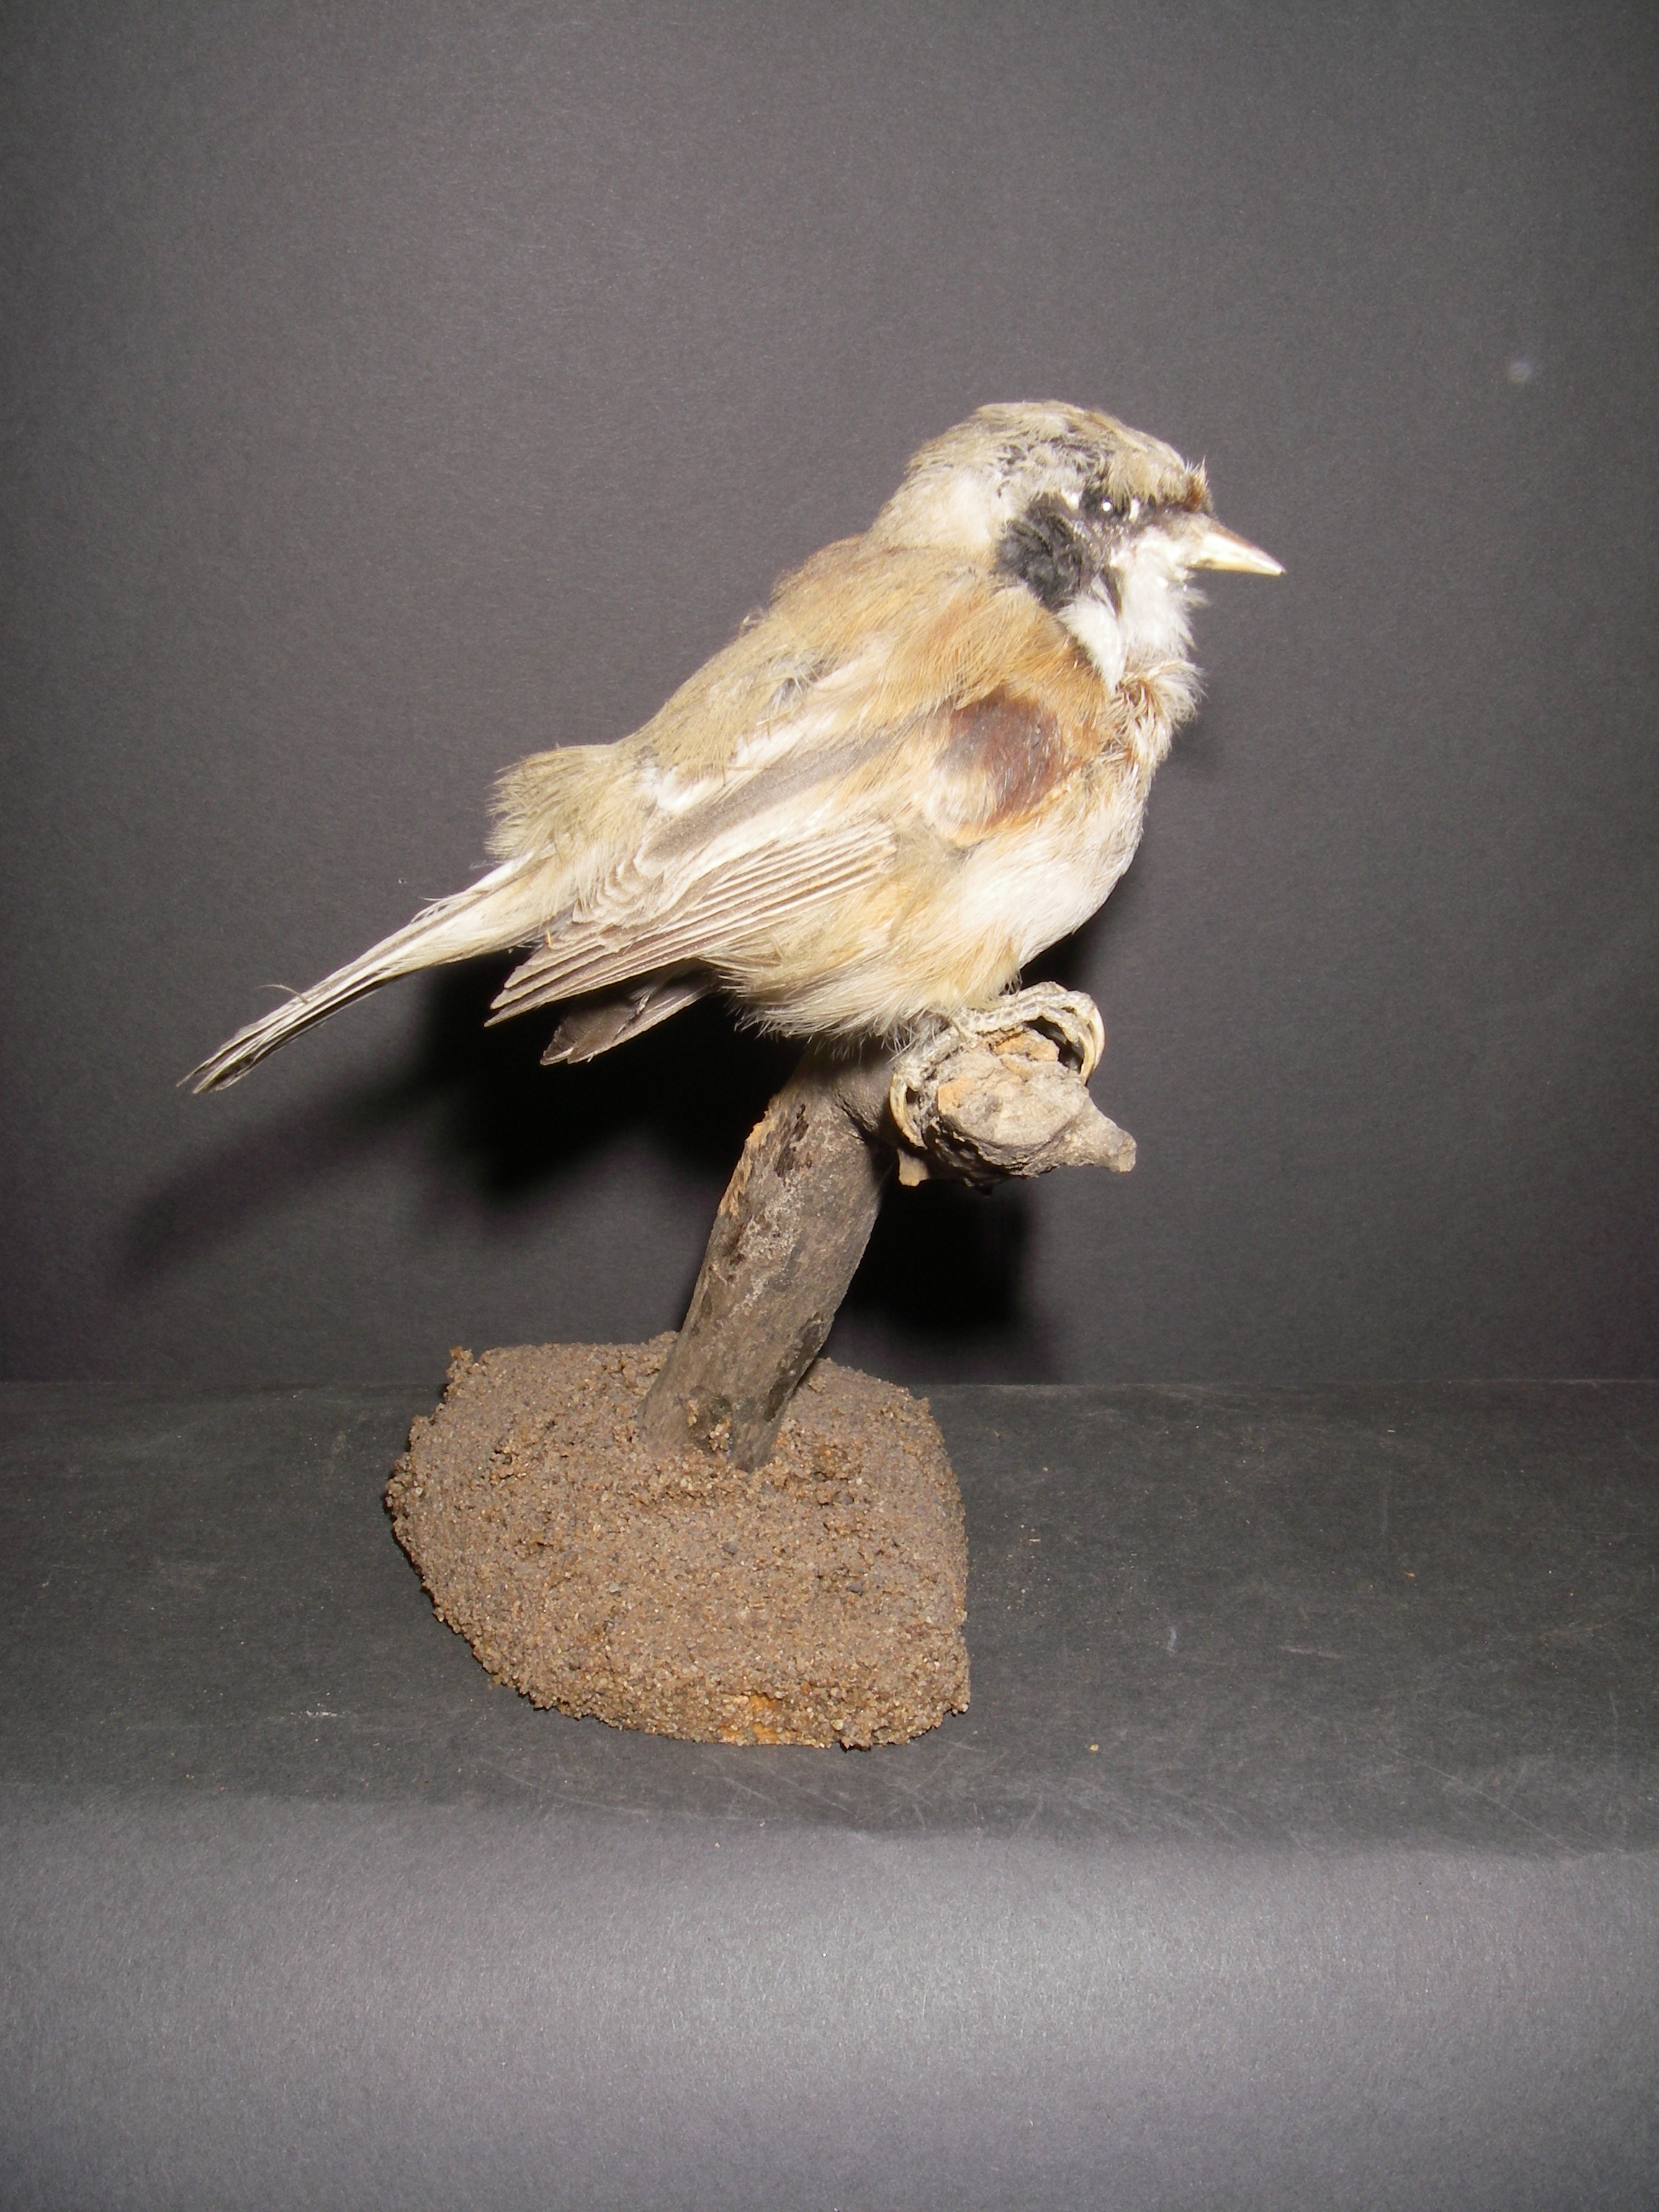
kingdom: Animalia
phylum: Chordata
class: Aves
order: Passeriformes
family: Remizidae
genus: Remiz
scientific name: Remiz pendulinus
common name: Eurasian penduline tit
